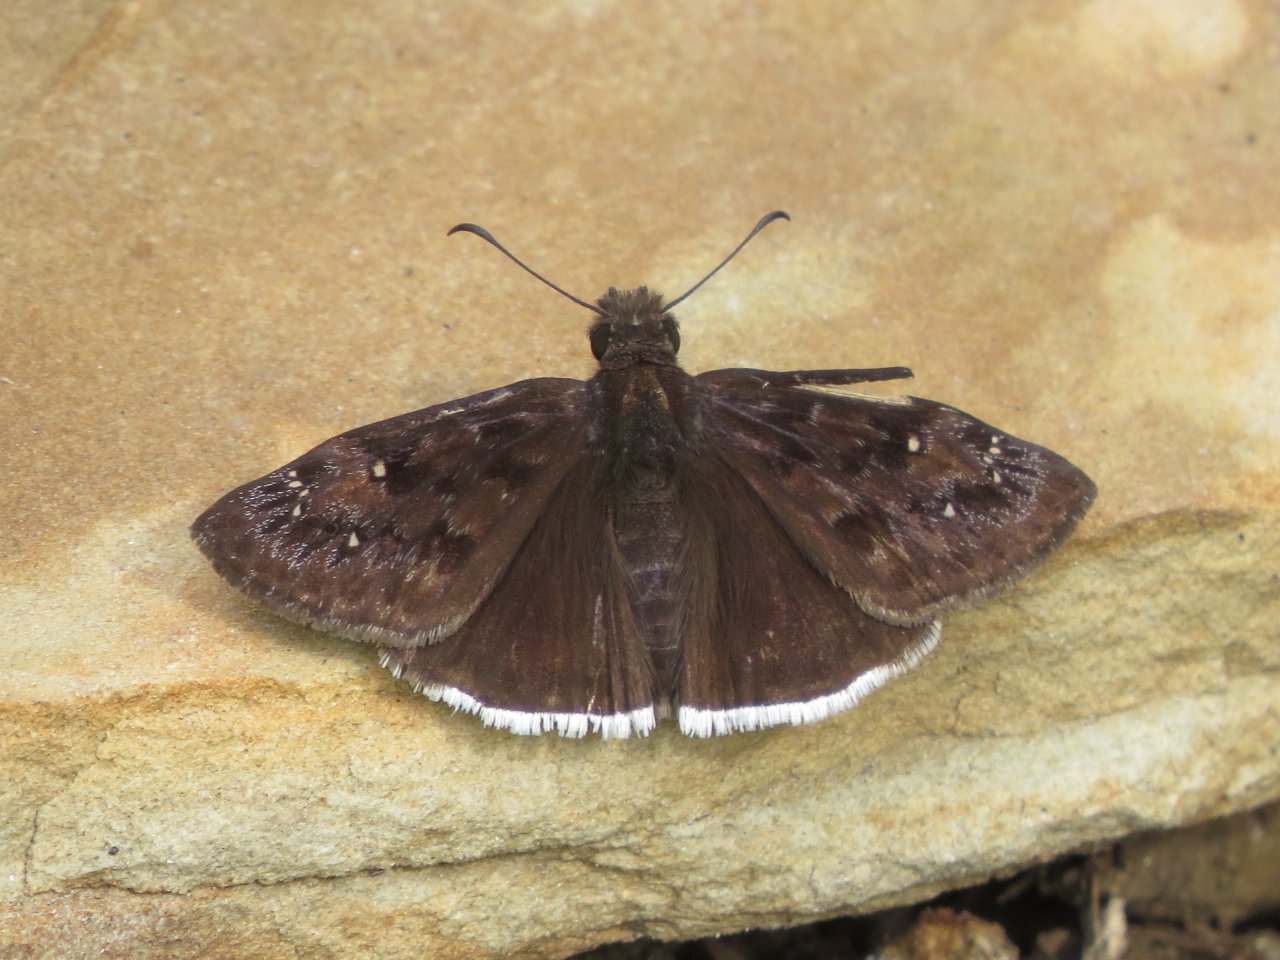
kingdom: Animalia
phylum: Arthropoda
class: Insecta
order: Lepidoptera
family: Hesperiidae
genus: Erynnis
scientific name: Erynnis funeralis
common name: Funereal Duskywing
